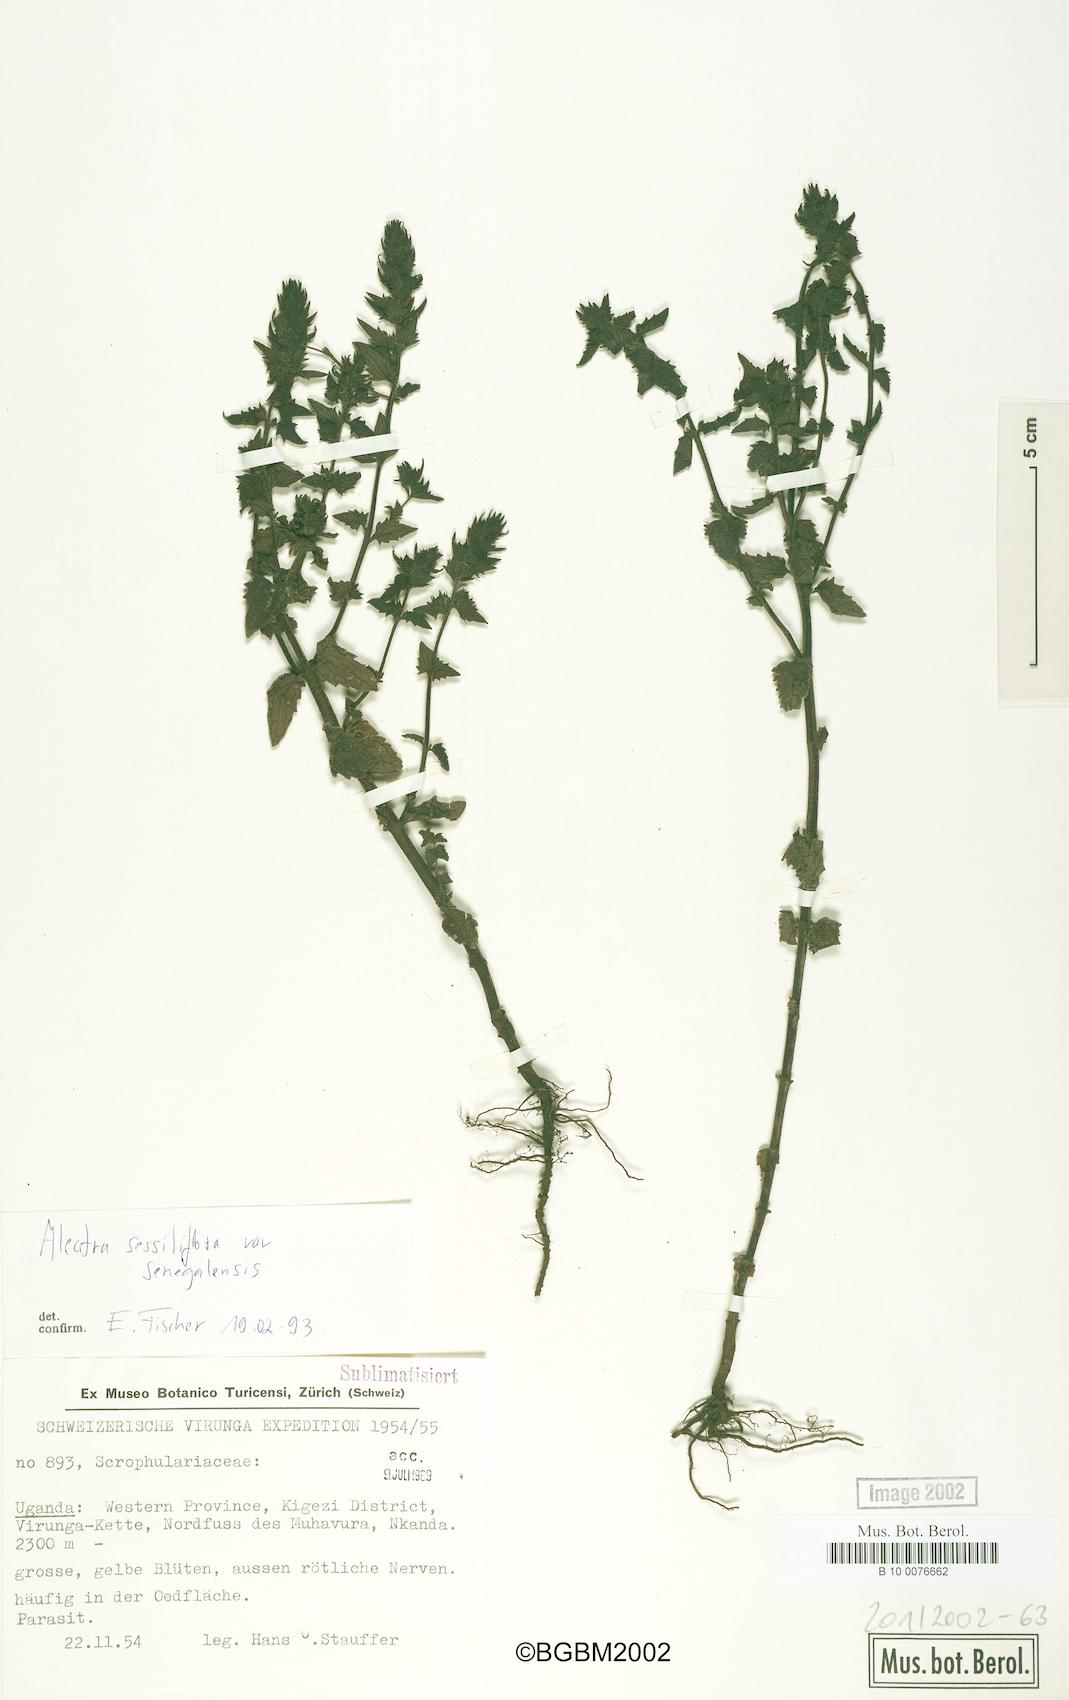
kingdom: Plantae
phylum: Tracheophyta
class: Magnoliopsida
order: Lamiales
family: Orobanchaceae
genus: Alectra
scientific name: Alectra sessiliflora
